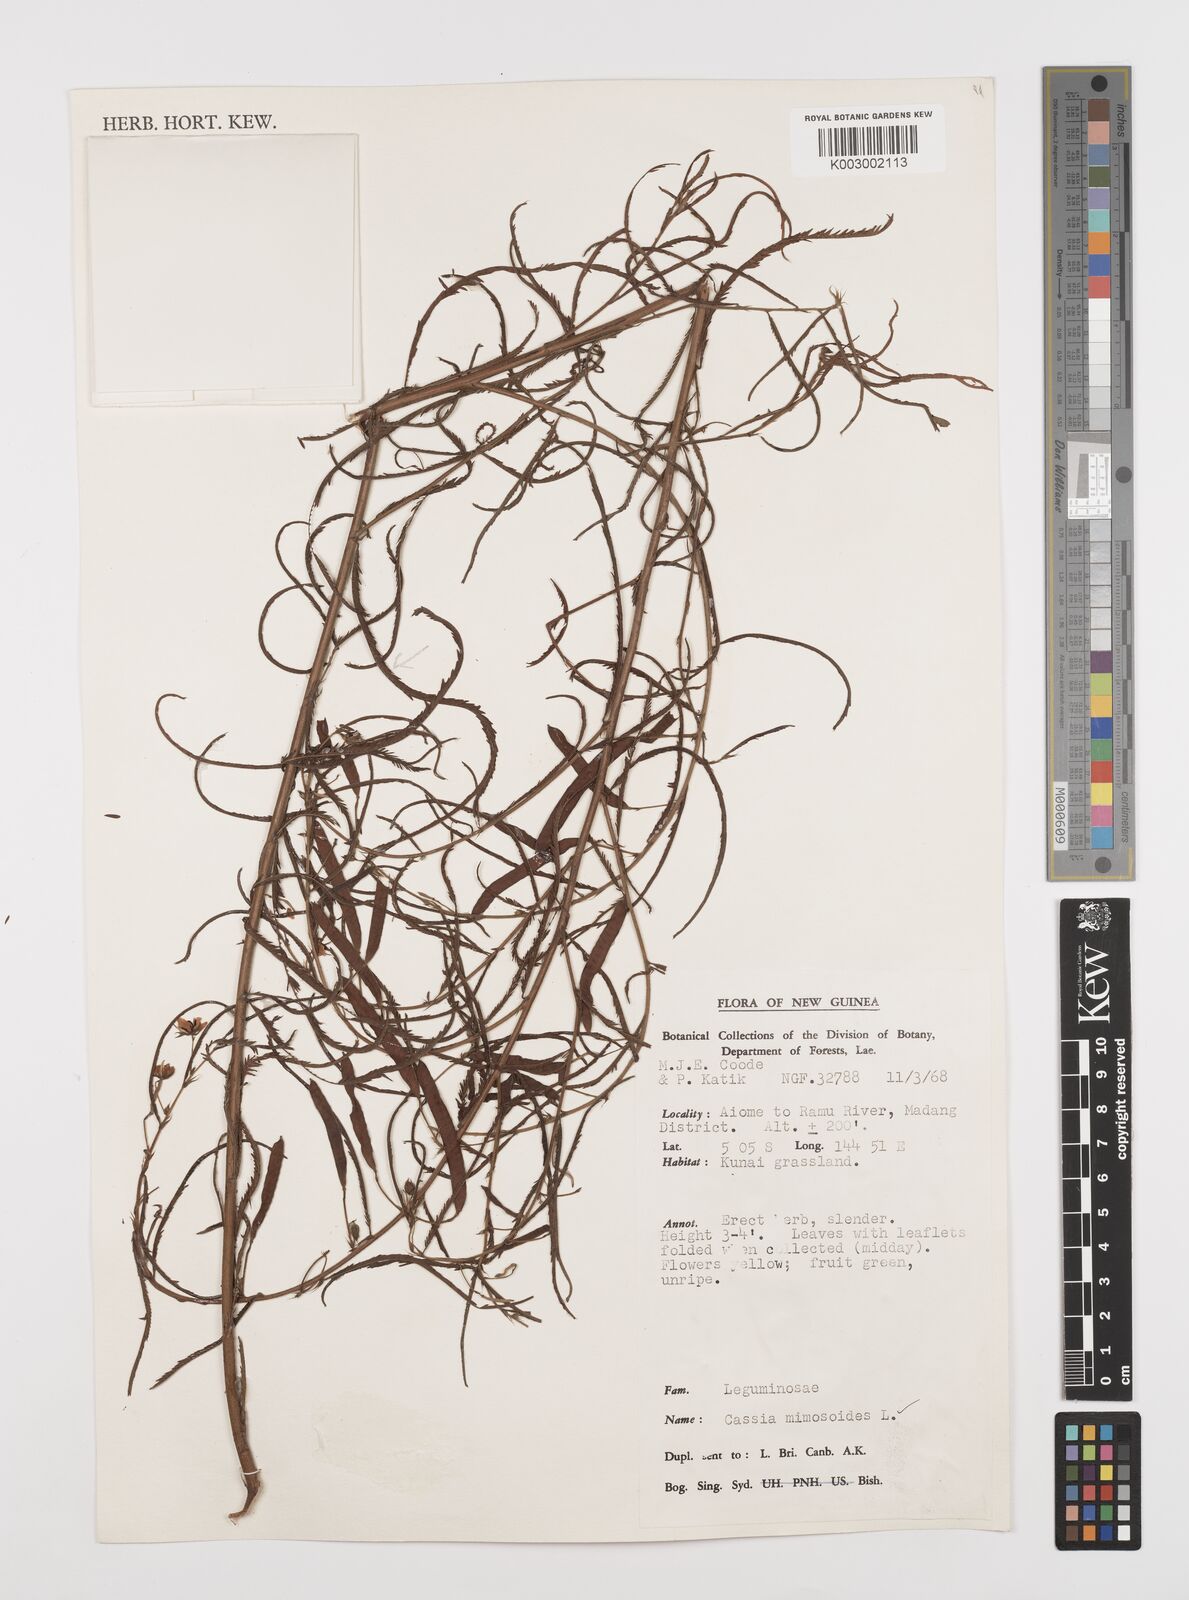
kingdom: Plantae
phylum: Tracheophyta
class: Magnoliopsida
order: Fabales
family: Fabaceae
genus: Chamaecrista
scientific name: Chamaecrista mimosoides
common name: Fish-bone cassia
